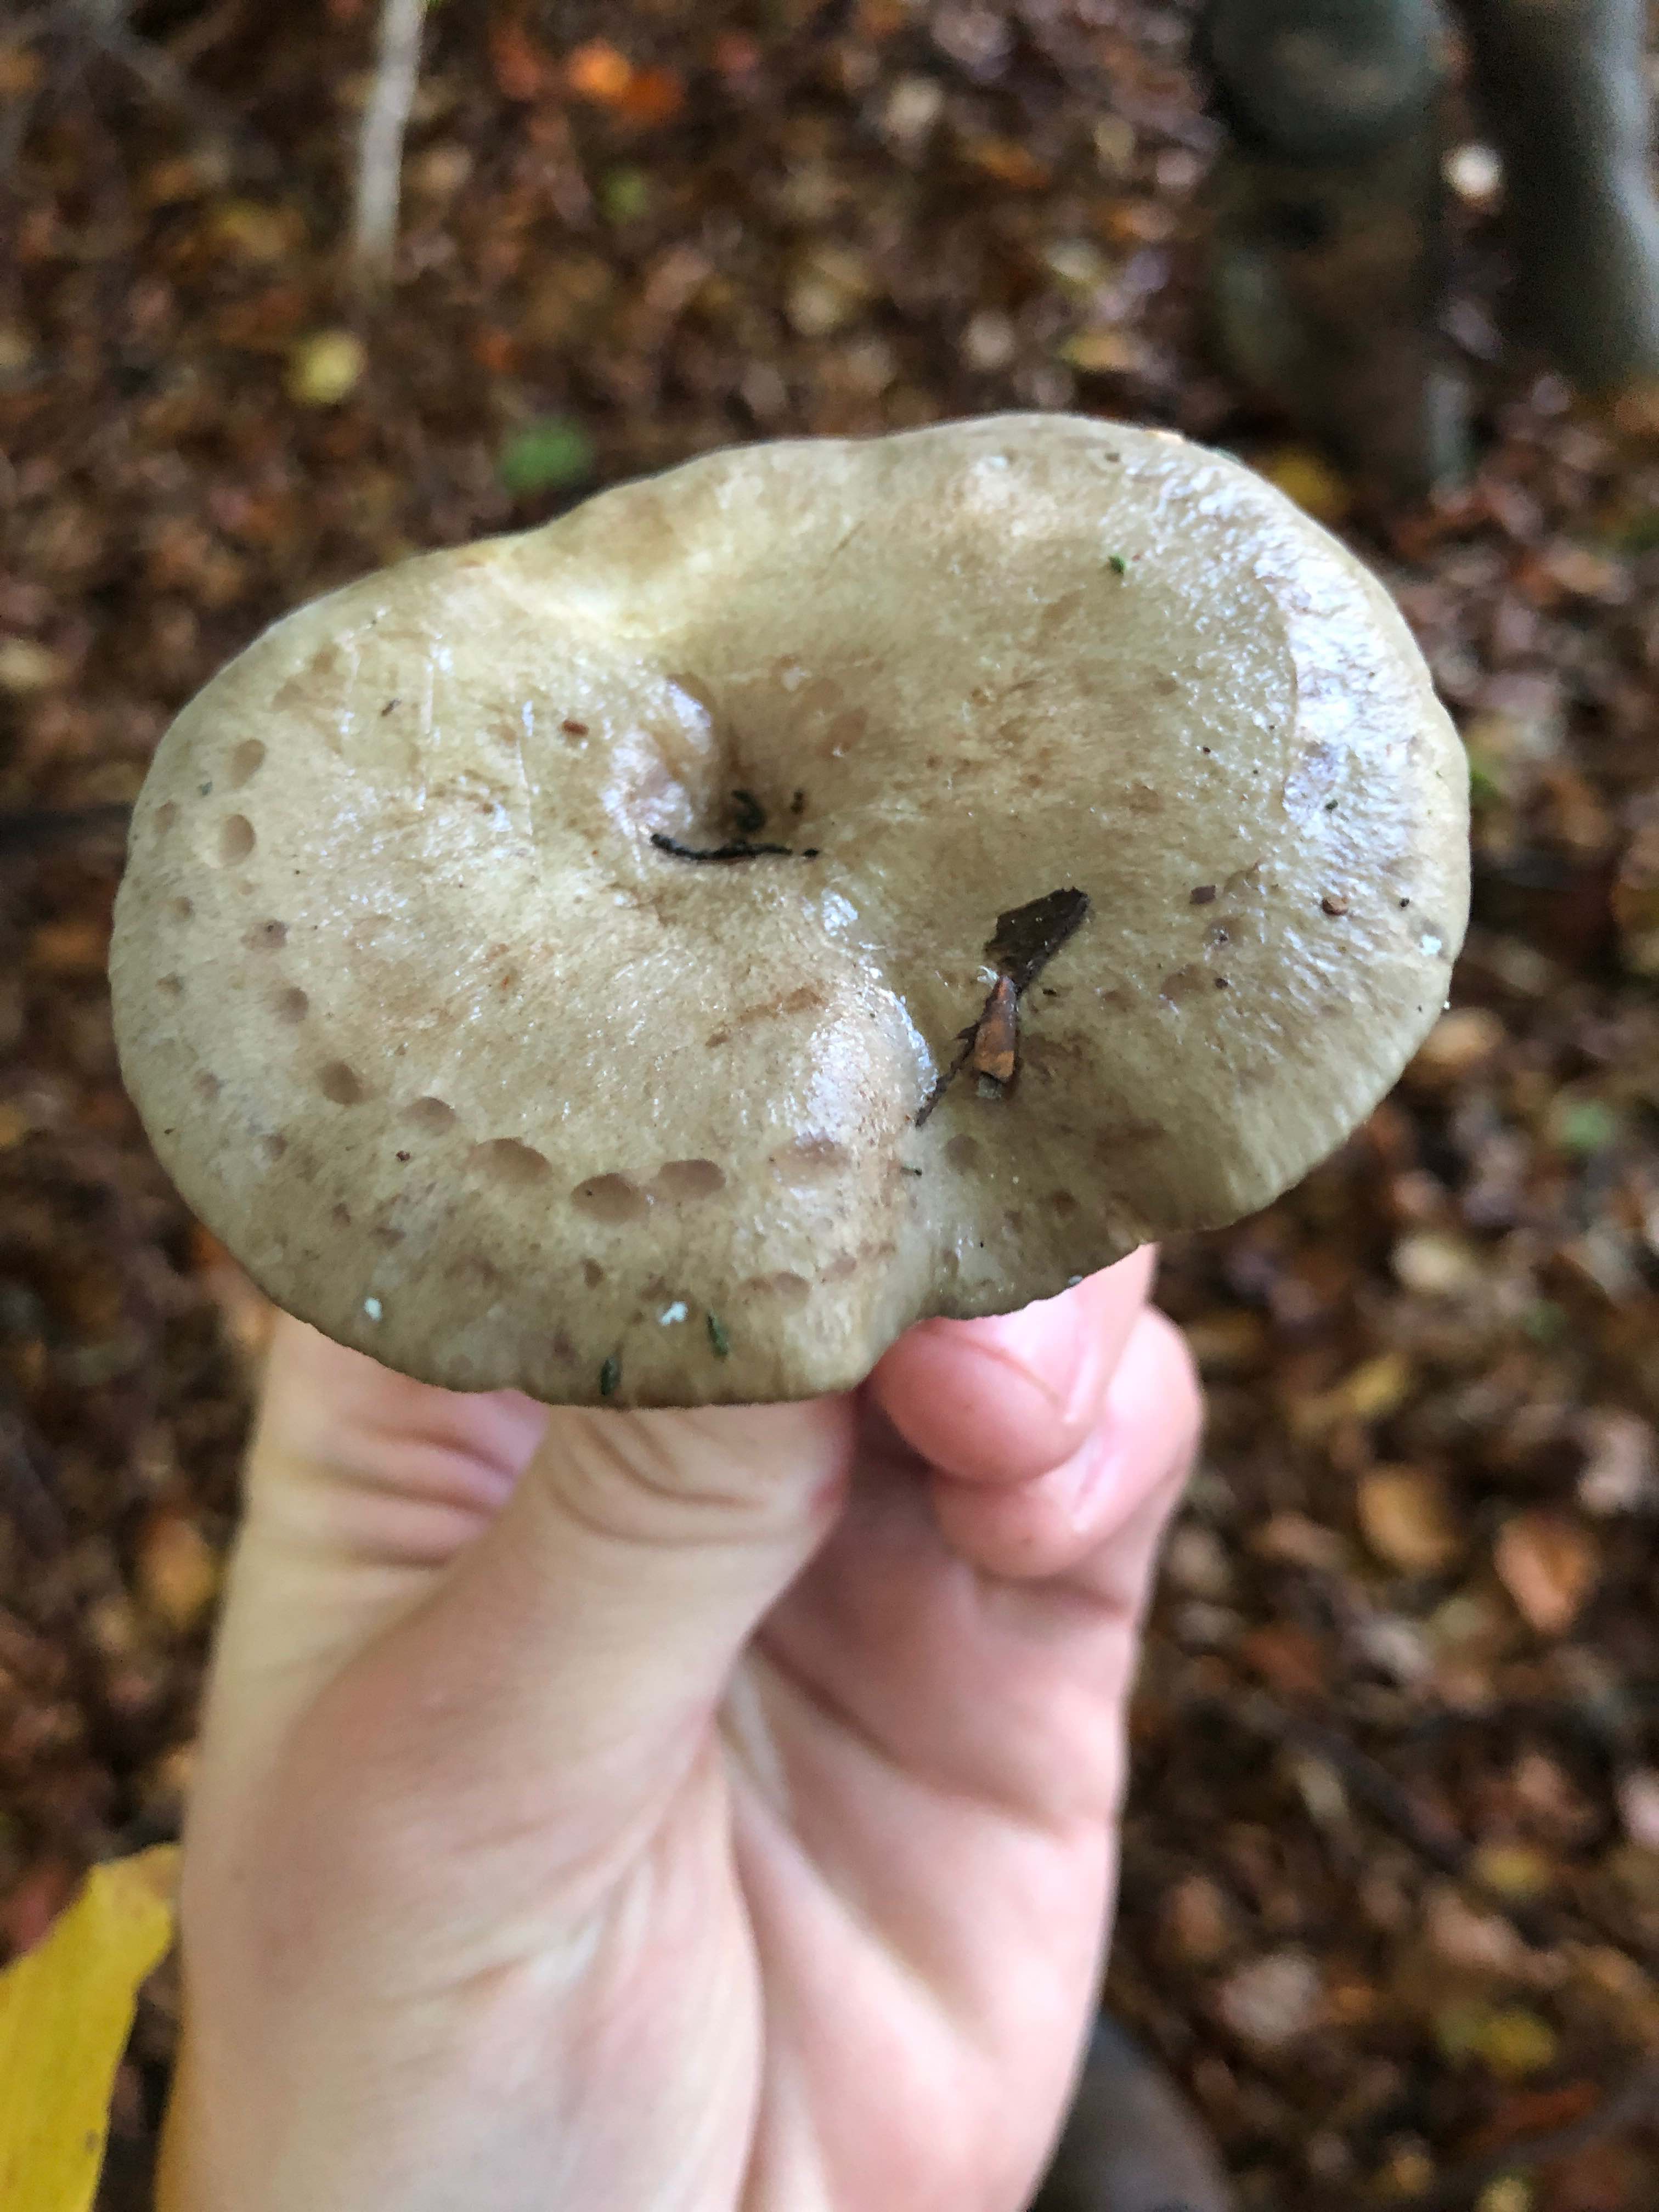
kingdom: Fungi
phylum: Basidiomycota
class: Agaricomycetes
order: Russulales
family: Russulaceae
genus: Lactarius
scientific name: Lactarius blennius
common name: dråbeplettet mælkehat
